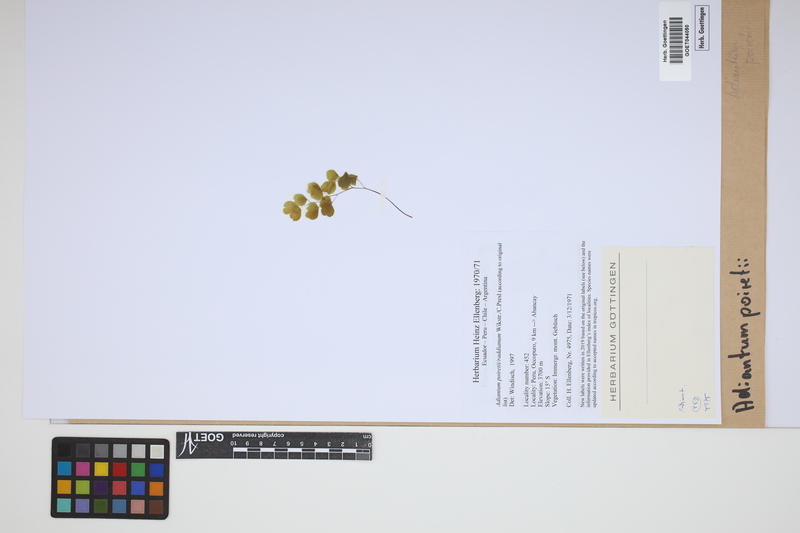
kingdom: Plantae
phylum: Tracheophyta
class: Polypodiopsida
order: Polypodiales
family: Pteridaceae
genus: Adiantum
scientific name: Adiantum poiretii
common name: Mexican maidenhair
